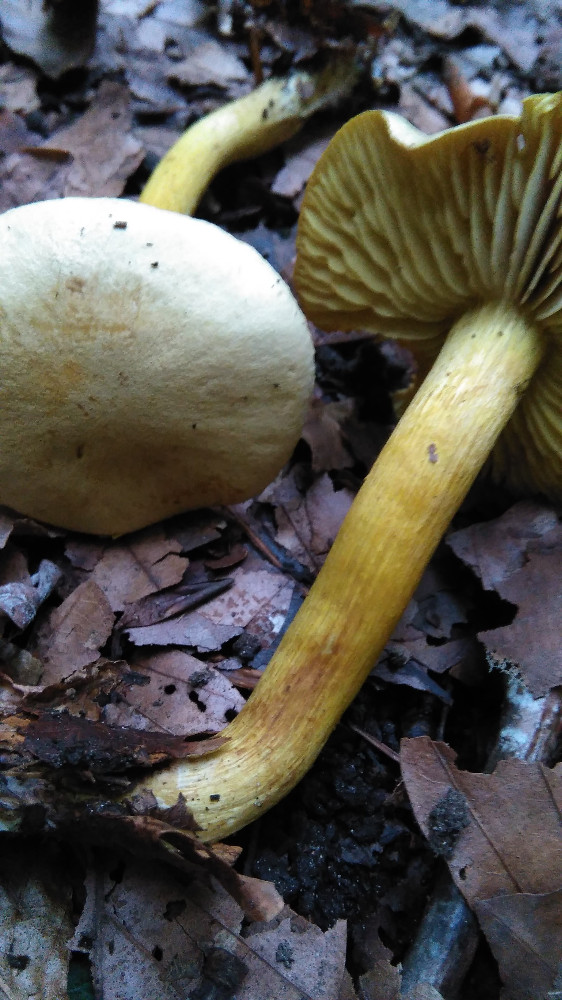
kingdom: Fungi
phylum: Basidiomycota
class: Agaricomycetes
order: Agaricales
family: Tricholomataceae
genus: Tricholoma
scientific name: Tricholoma sulphureum
